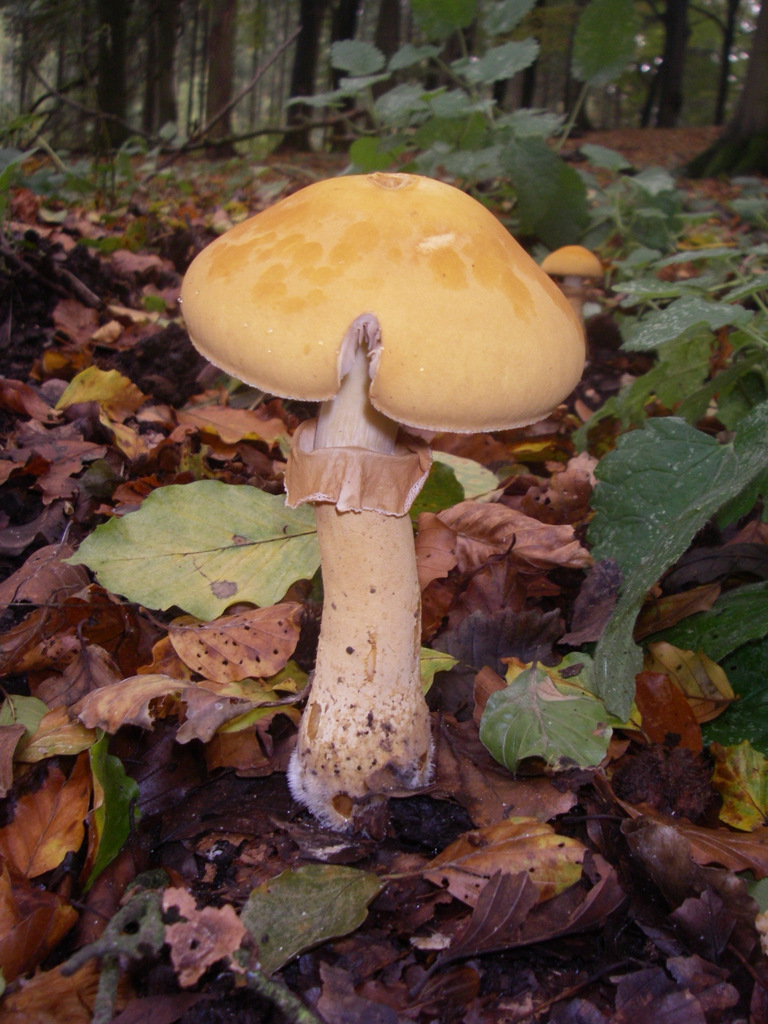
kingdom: Fungi
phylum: Basidiomycota
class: Agaricomycetes
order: Agaricales
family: Tricholomataceae
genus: Phaeolepiota
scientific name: Phaeolepiota aurea
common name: gyldenhat
